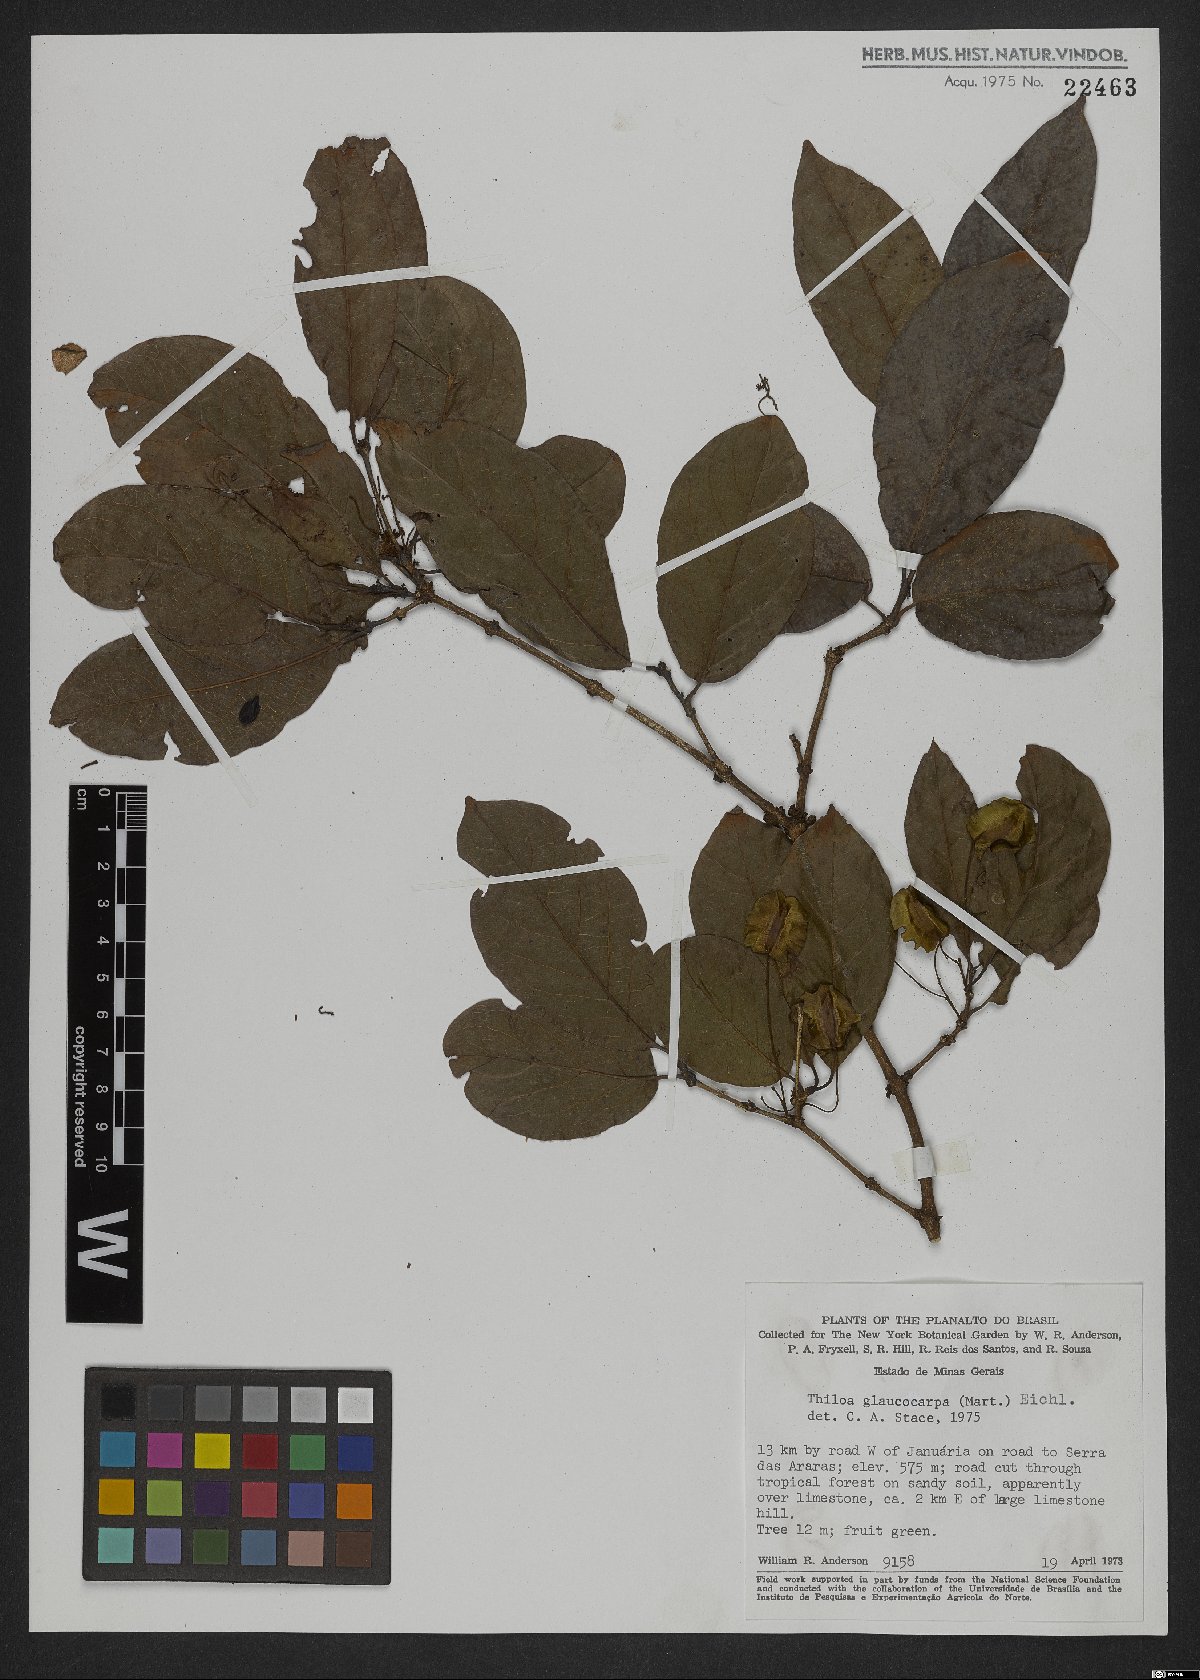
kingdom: Plantae
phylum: Tracheophyta
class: Magnoliopsida
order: Myrtales
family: Combretaceae
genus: Combretum
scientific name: Combretum glaucocarpum
